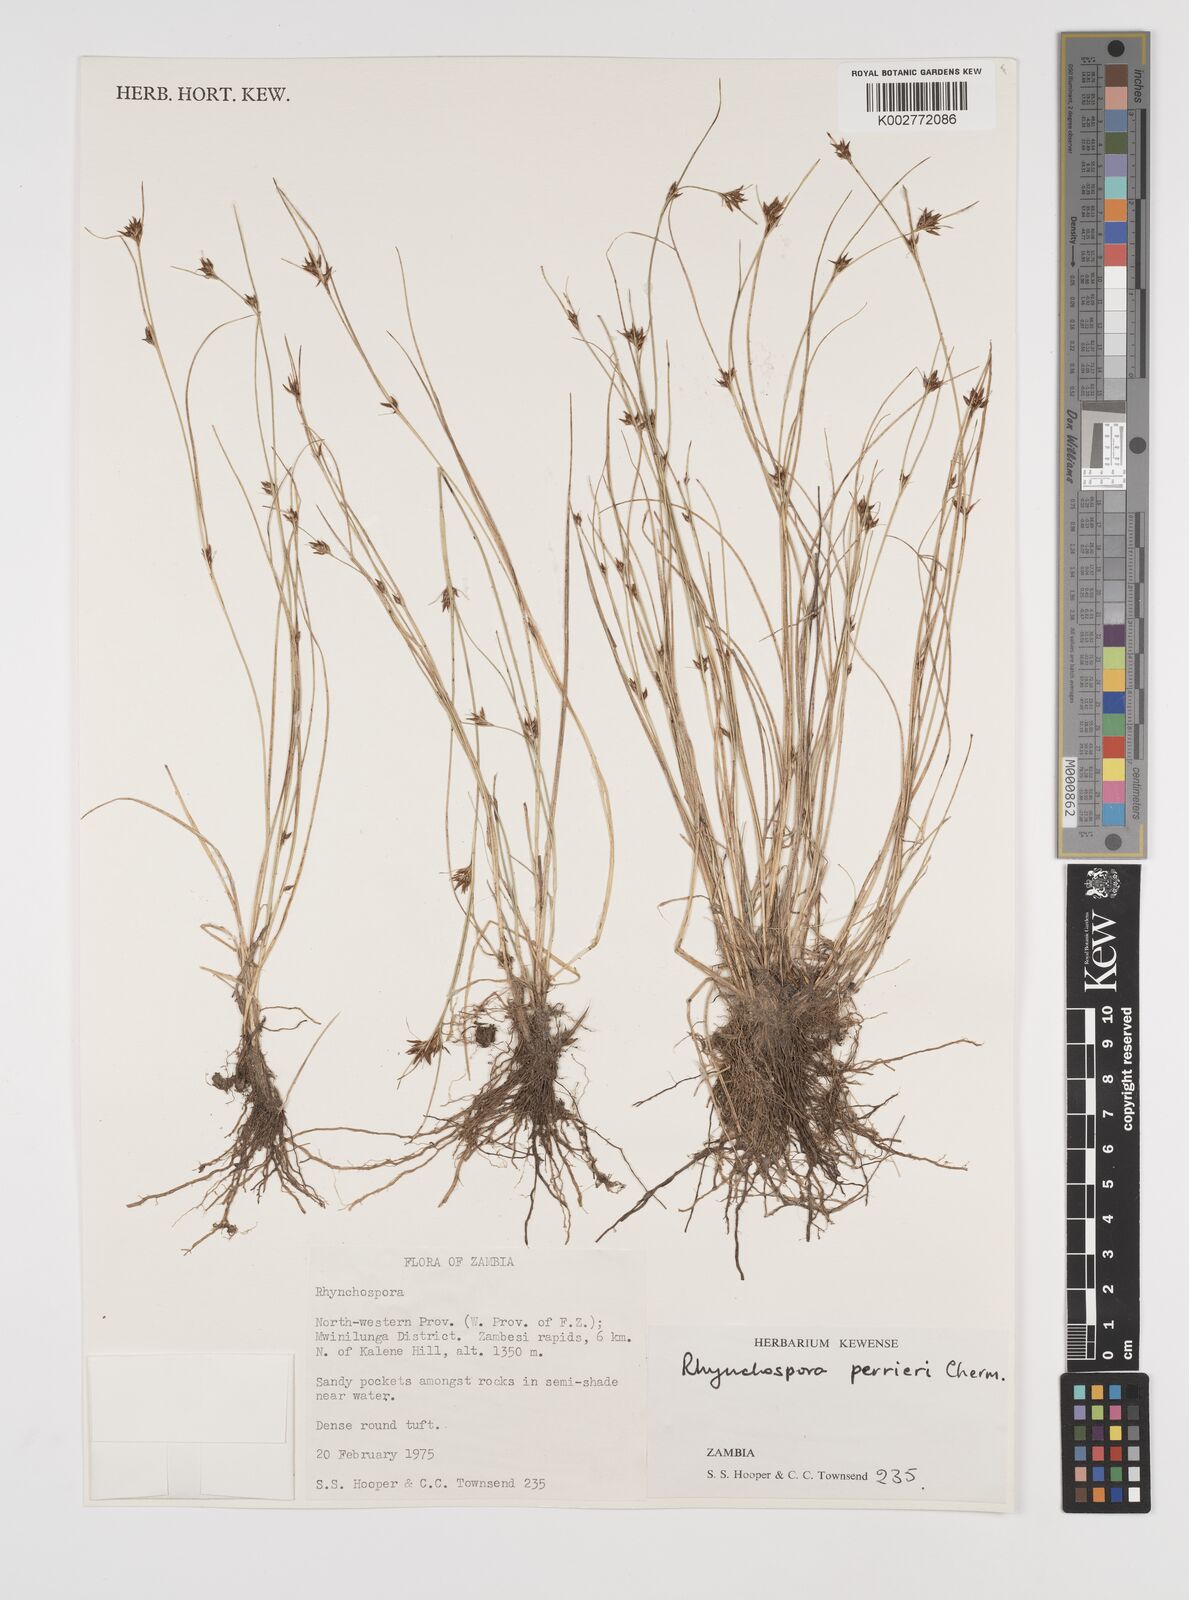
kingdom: Plantae
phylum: Tracheophyta
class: Liliopsida
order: Poales
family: Cyperaceae
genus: Rhynchospora
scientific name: Rhynchospora perrieri
